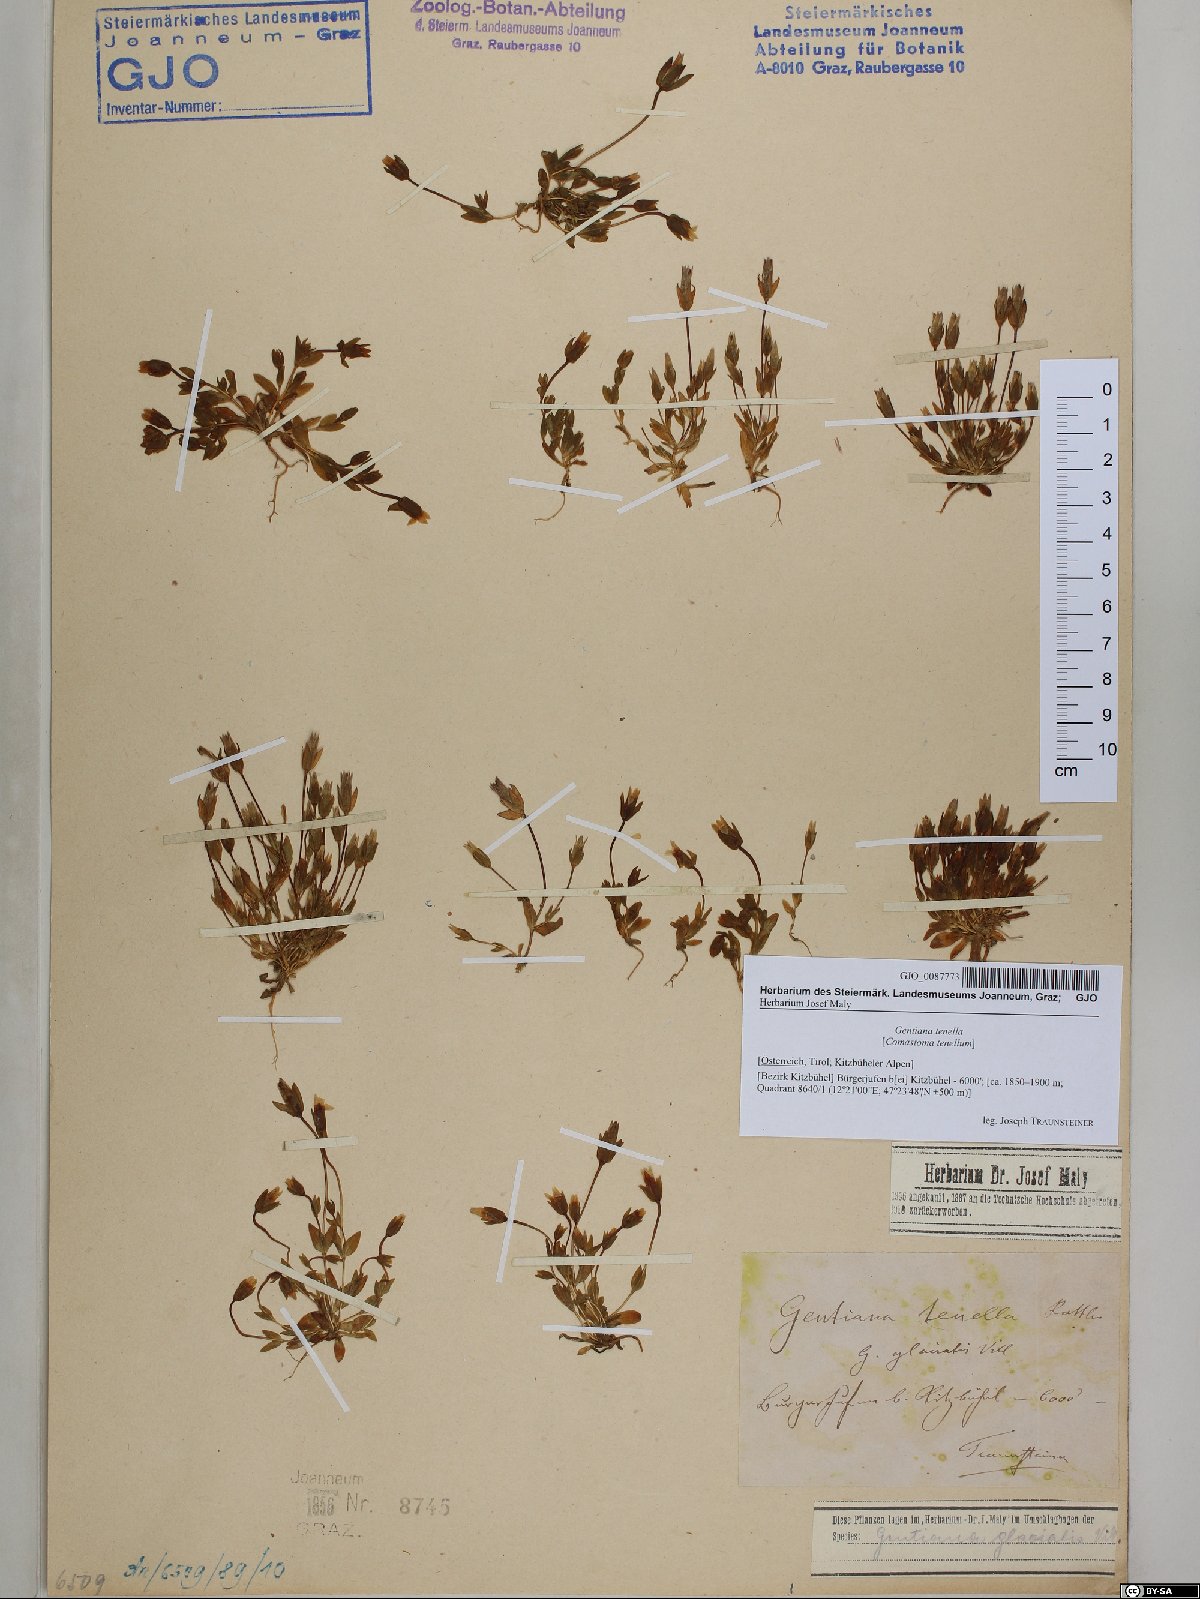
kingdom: Plantae
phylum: Tracheophyta
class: Magnoliopsida
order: Gentianales
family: Gentianaceae
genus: Comastoma
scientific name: Comastoma tenellum
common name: Dane's dwarf gentian
